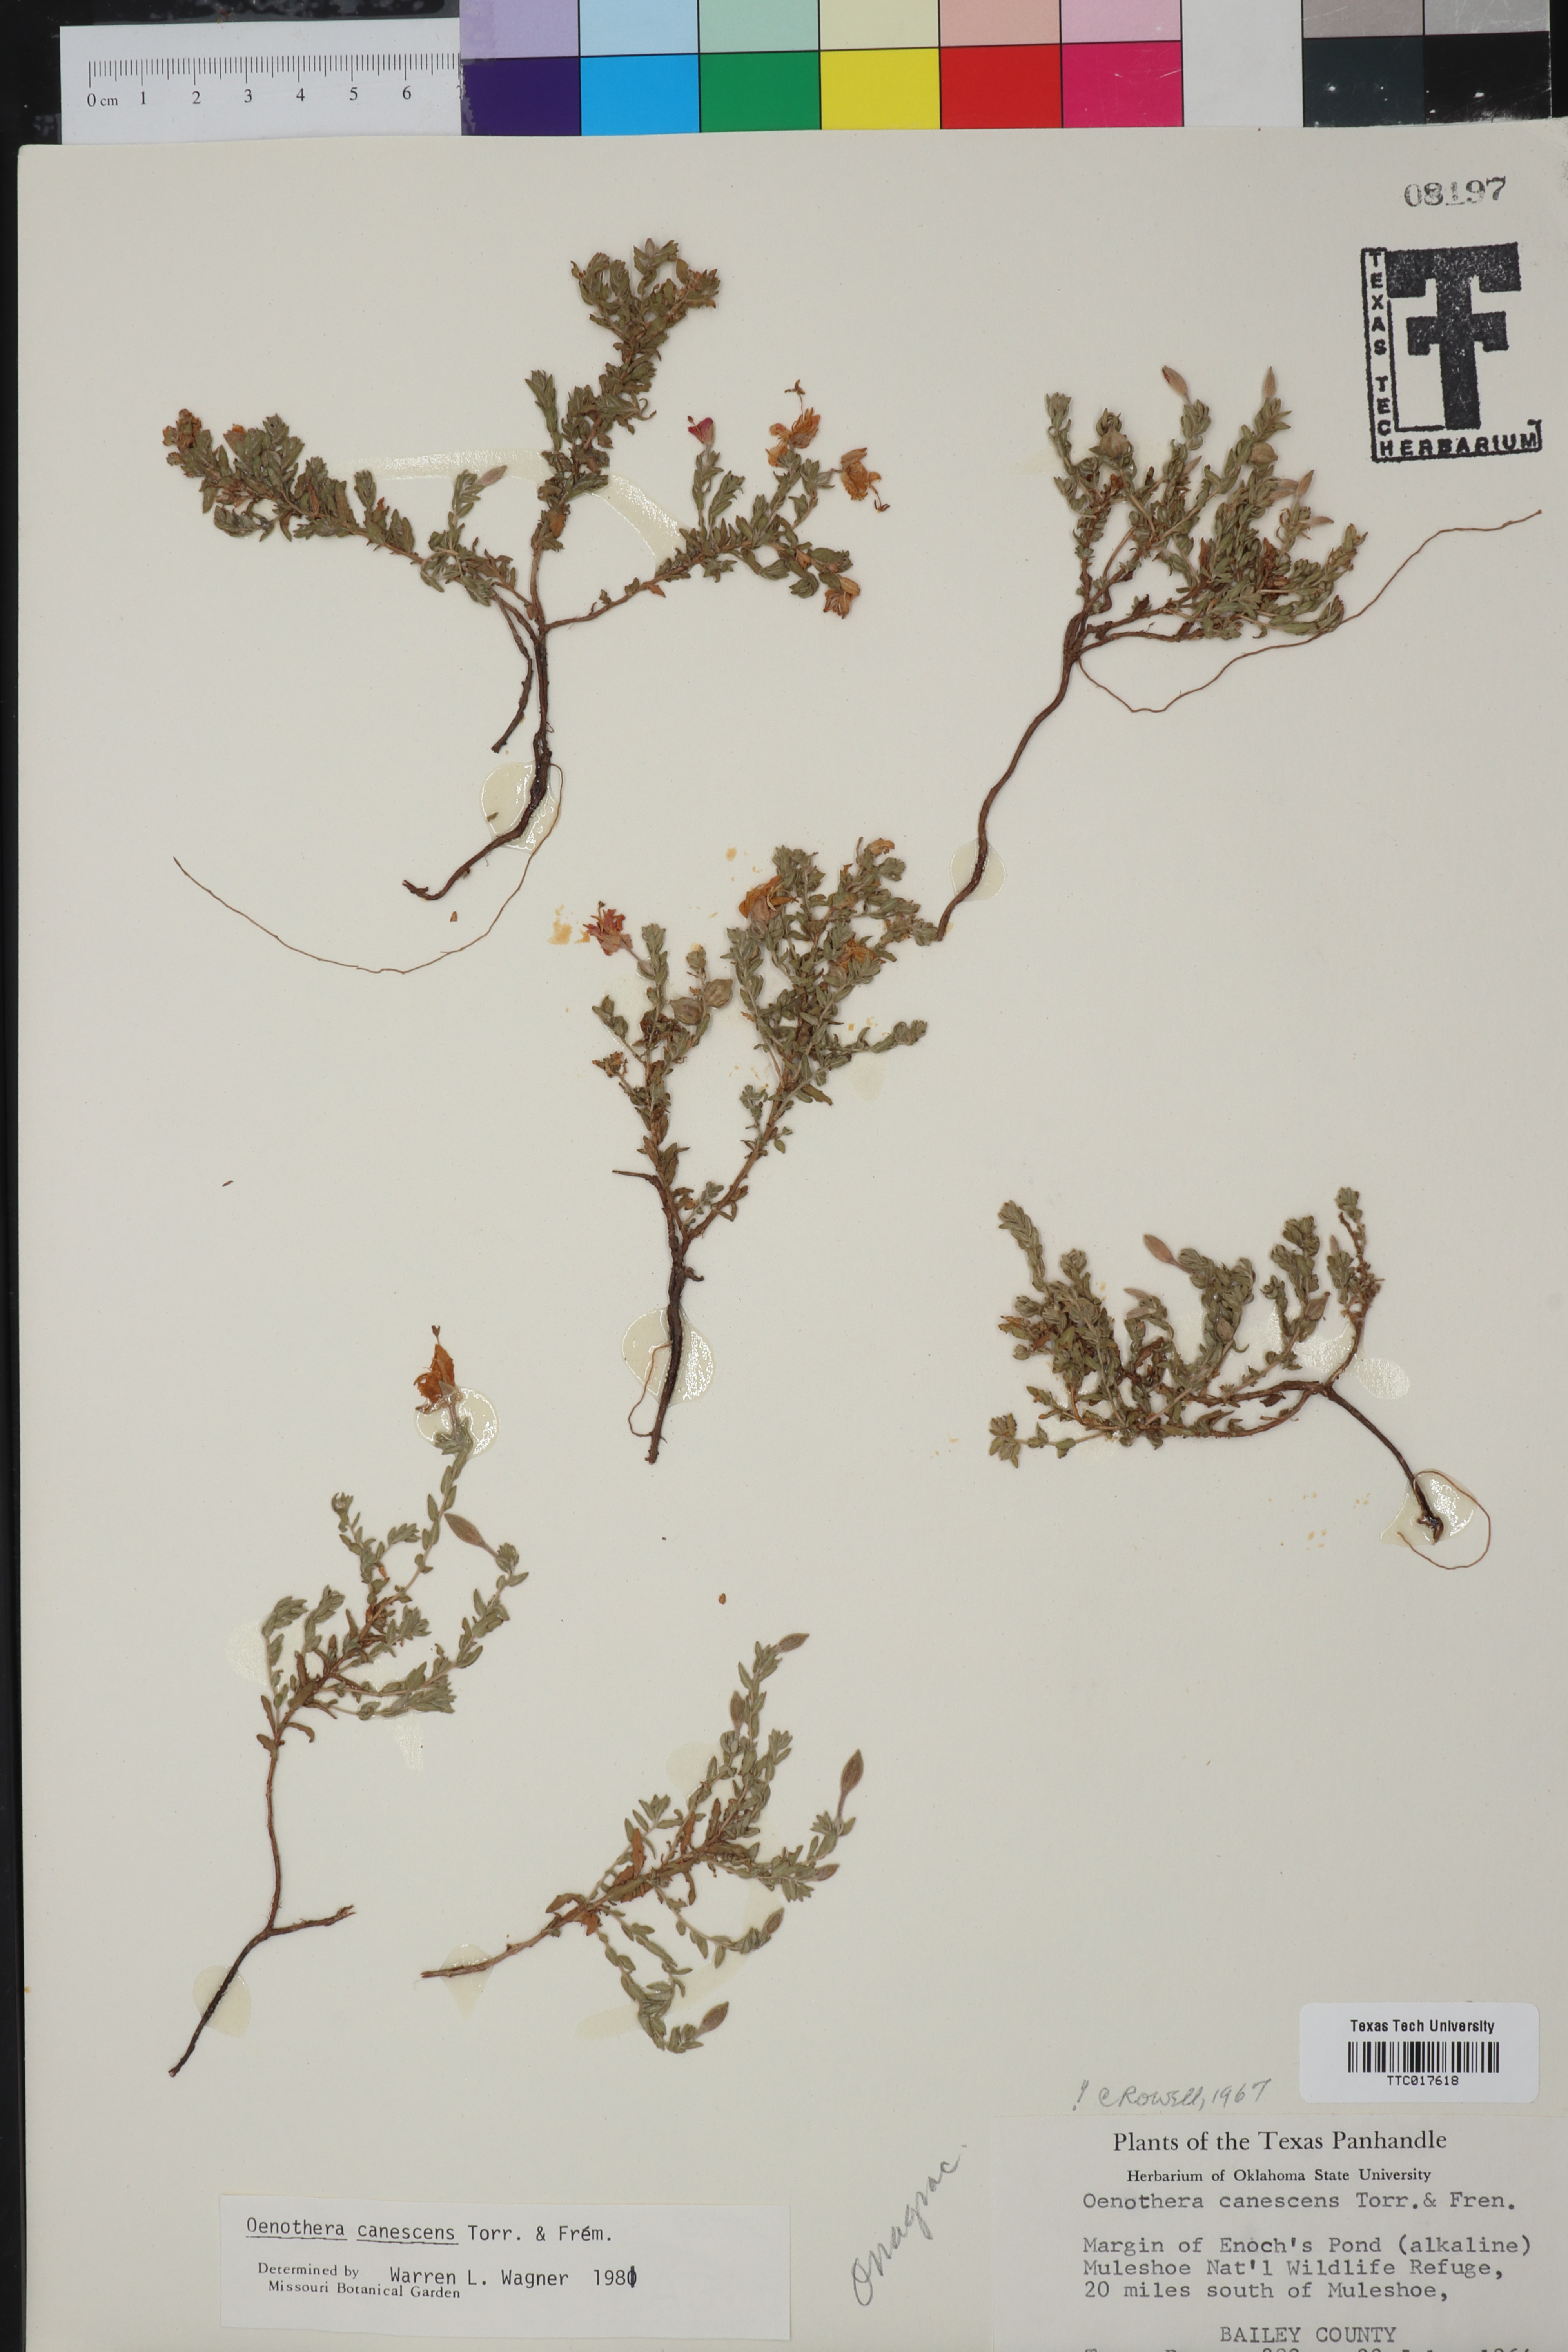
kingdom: Plantae
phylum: Tracheophyta
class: Magnoliopsida
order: Myrtales
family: Onagraceae
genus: Oenothera
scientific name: Oenothera canescens
